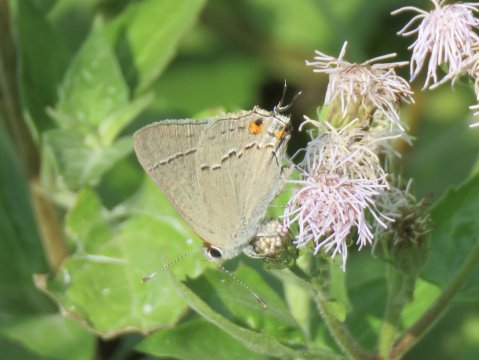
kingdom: Animalia
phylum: Arthropoda
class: Insecta
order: Lepidoptera
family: Lycaenidae
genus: Strymon
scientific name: Strymon melinus
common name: Gray Hairstreak
